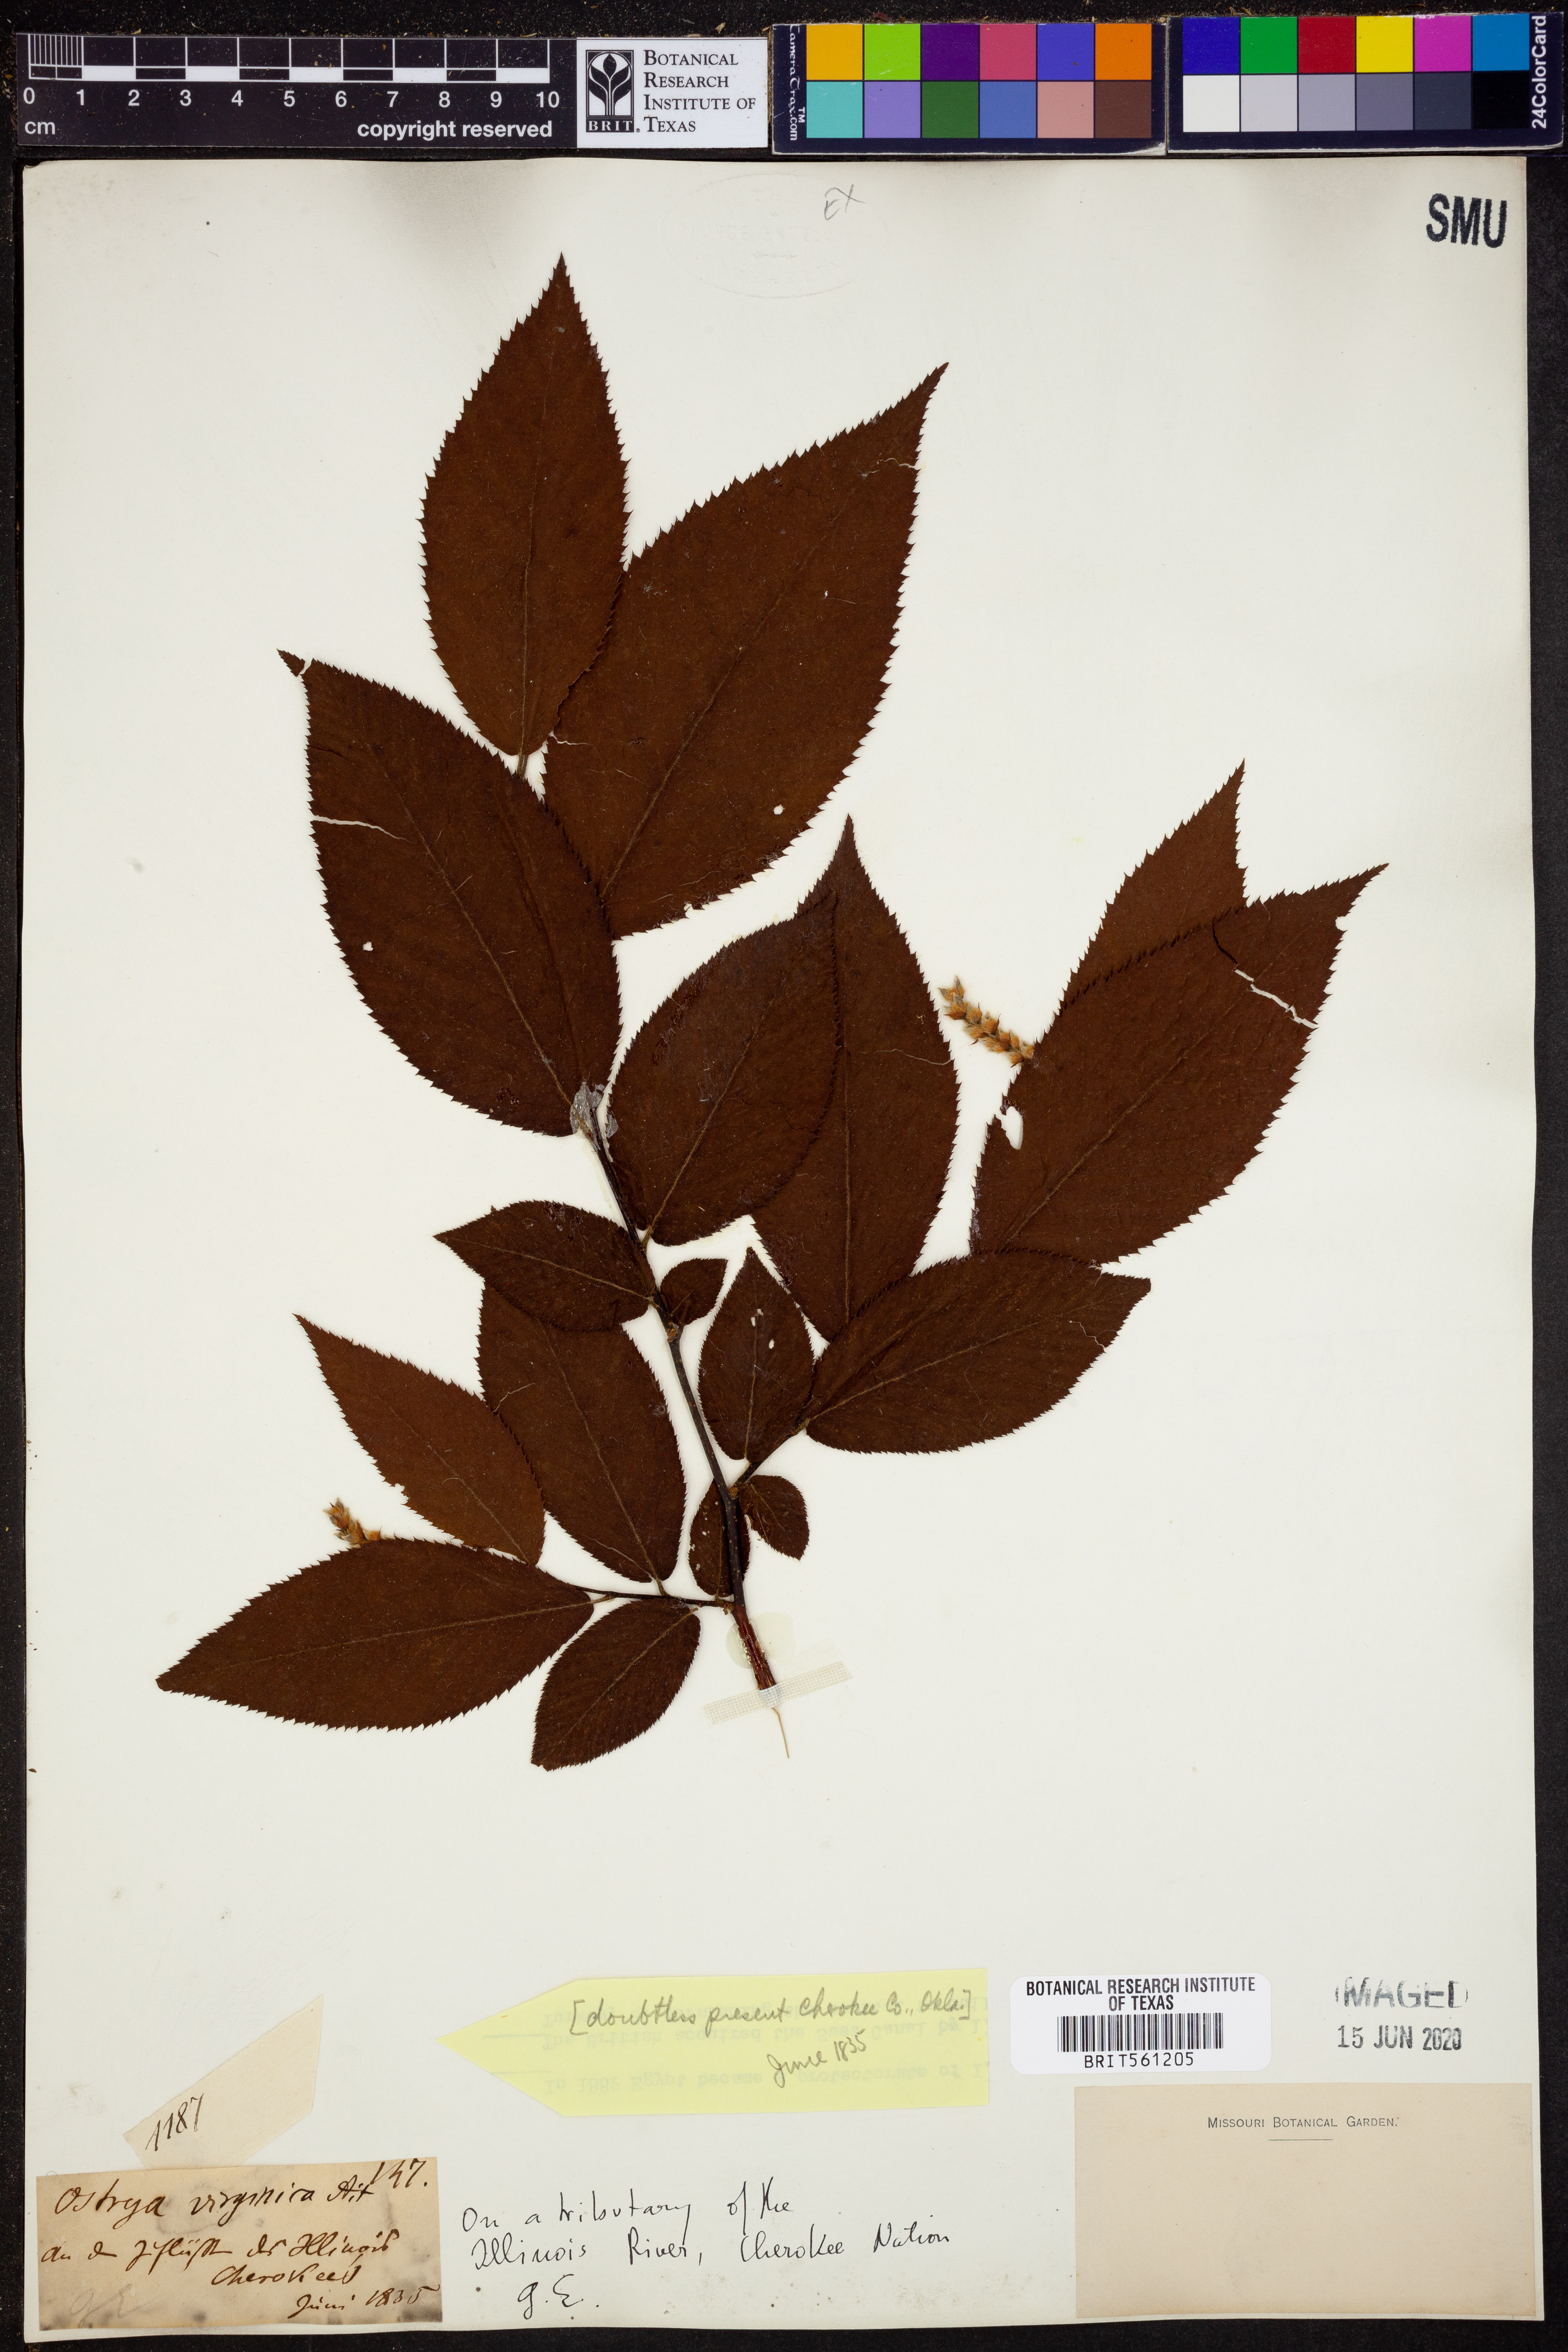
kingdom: Plantae
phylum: Tracheophyta
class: Magnoliopsida
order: Fagales
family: Betulaceae
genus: Ostrya
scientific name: Ostrya virginiana
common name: Ironwood
